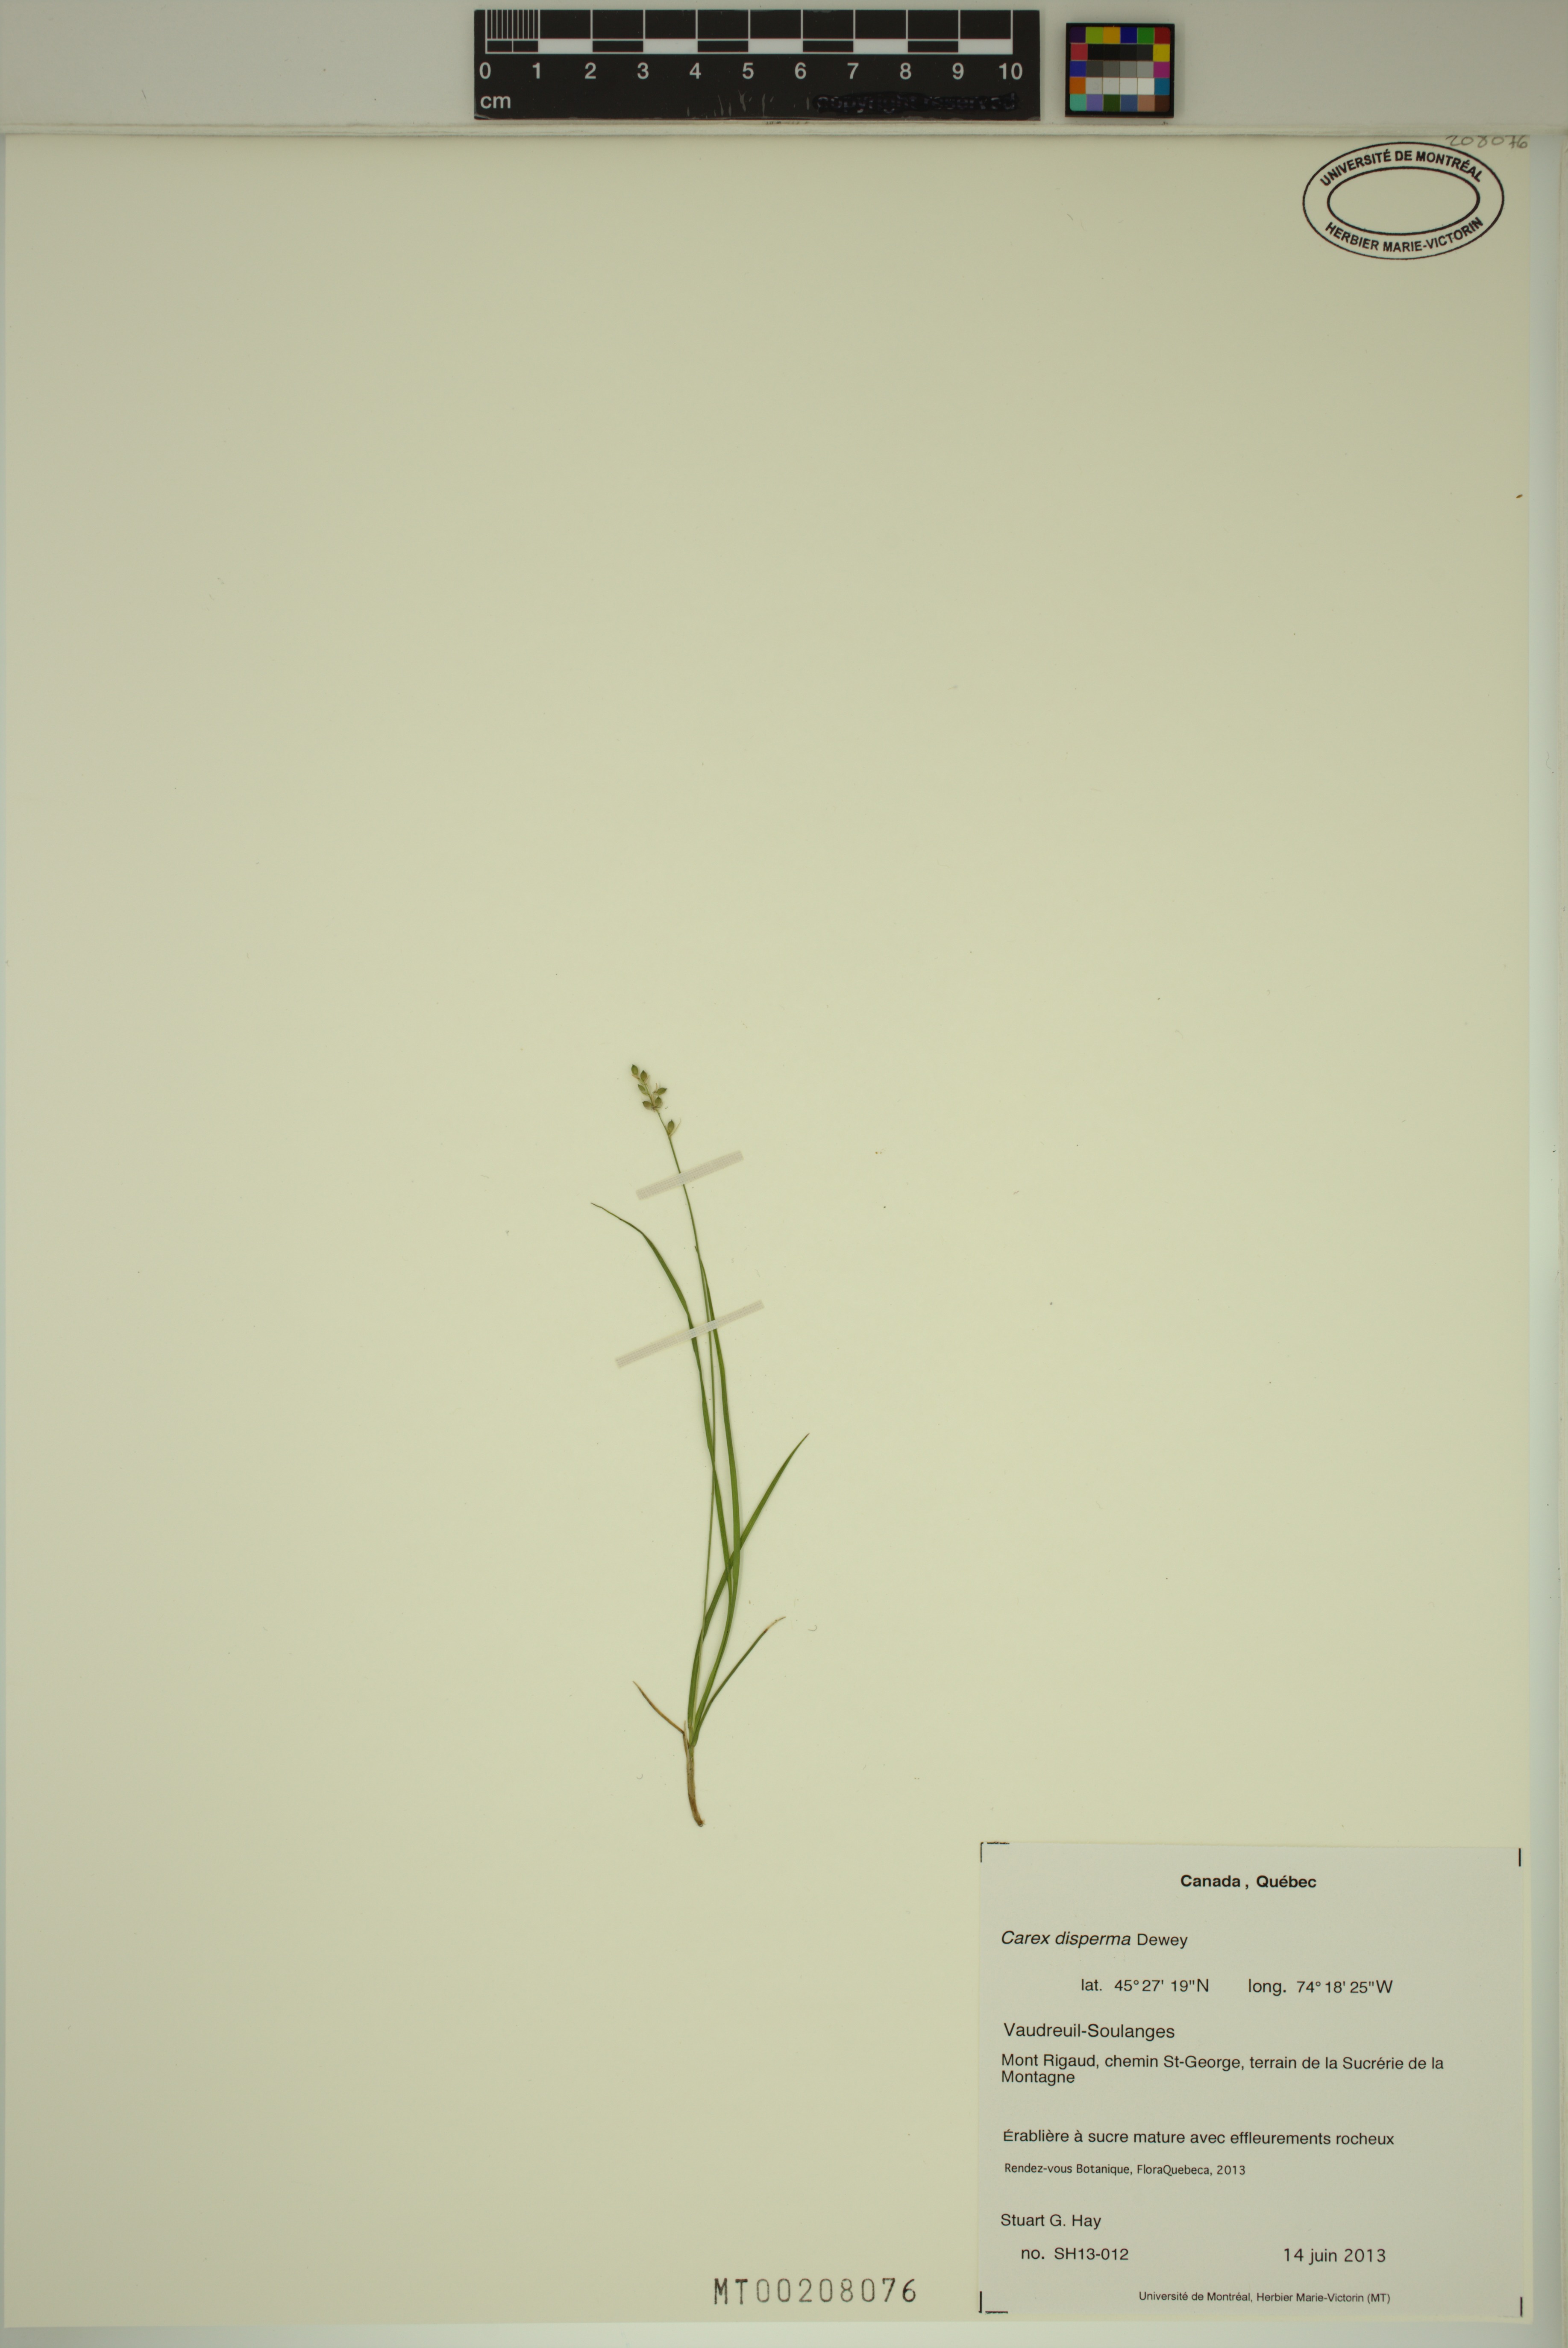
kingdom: Plantae
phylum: Tracheophyta
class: Liliopsida
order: Poales
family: Cyperaceae
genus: Carex
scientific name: Carex disperma
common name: Short-leaved sedge
